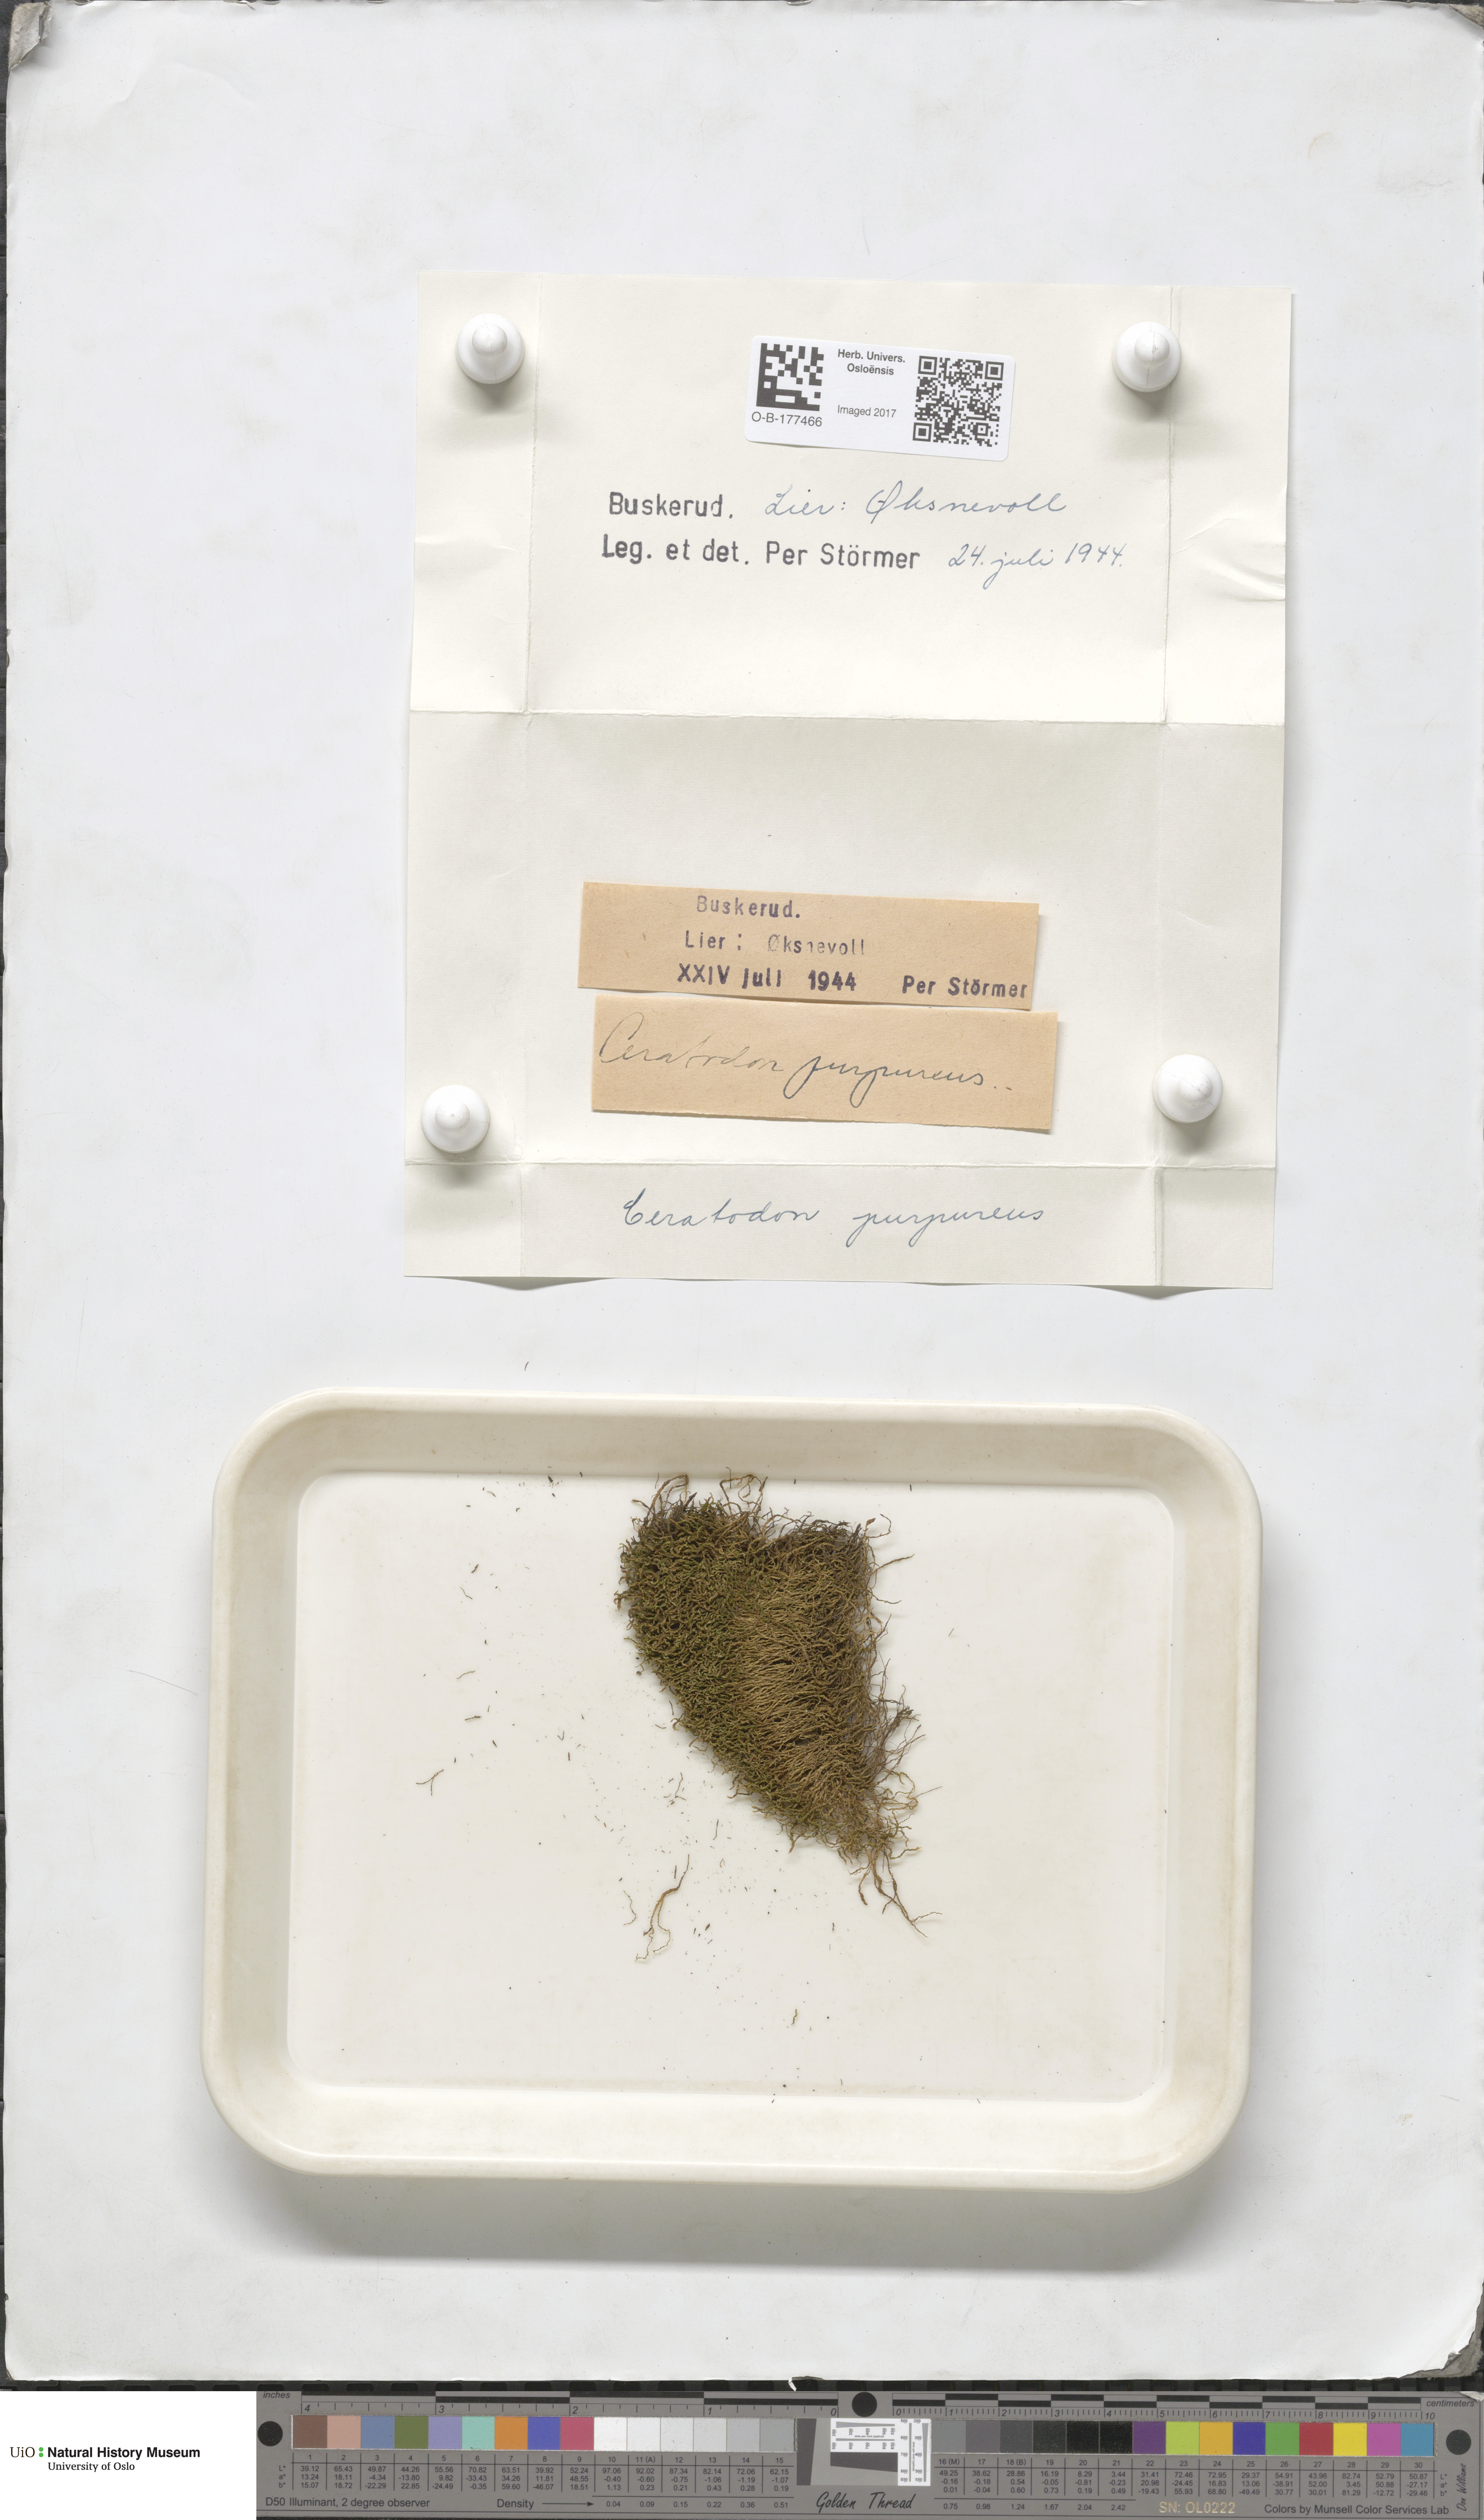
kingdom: Plantae
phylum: Bryophyta
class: Bryopsida
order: Dicranales
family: Ditrichaceae
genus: Ceratodon
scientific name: Ceratodon purpureus
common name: Redshank
